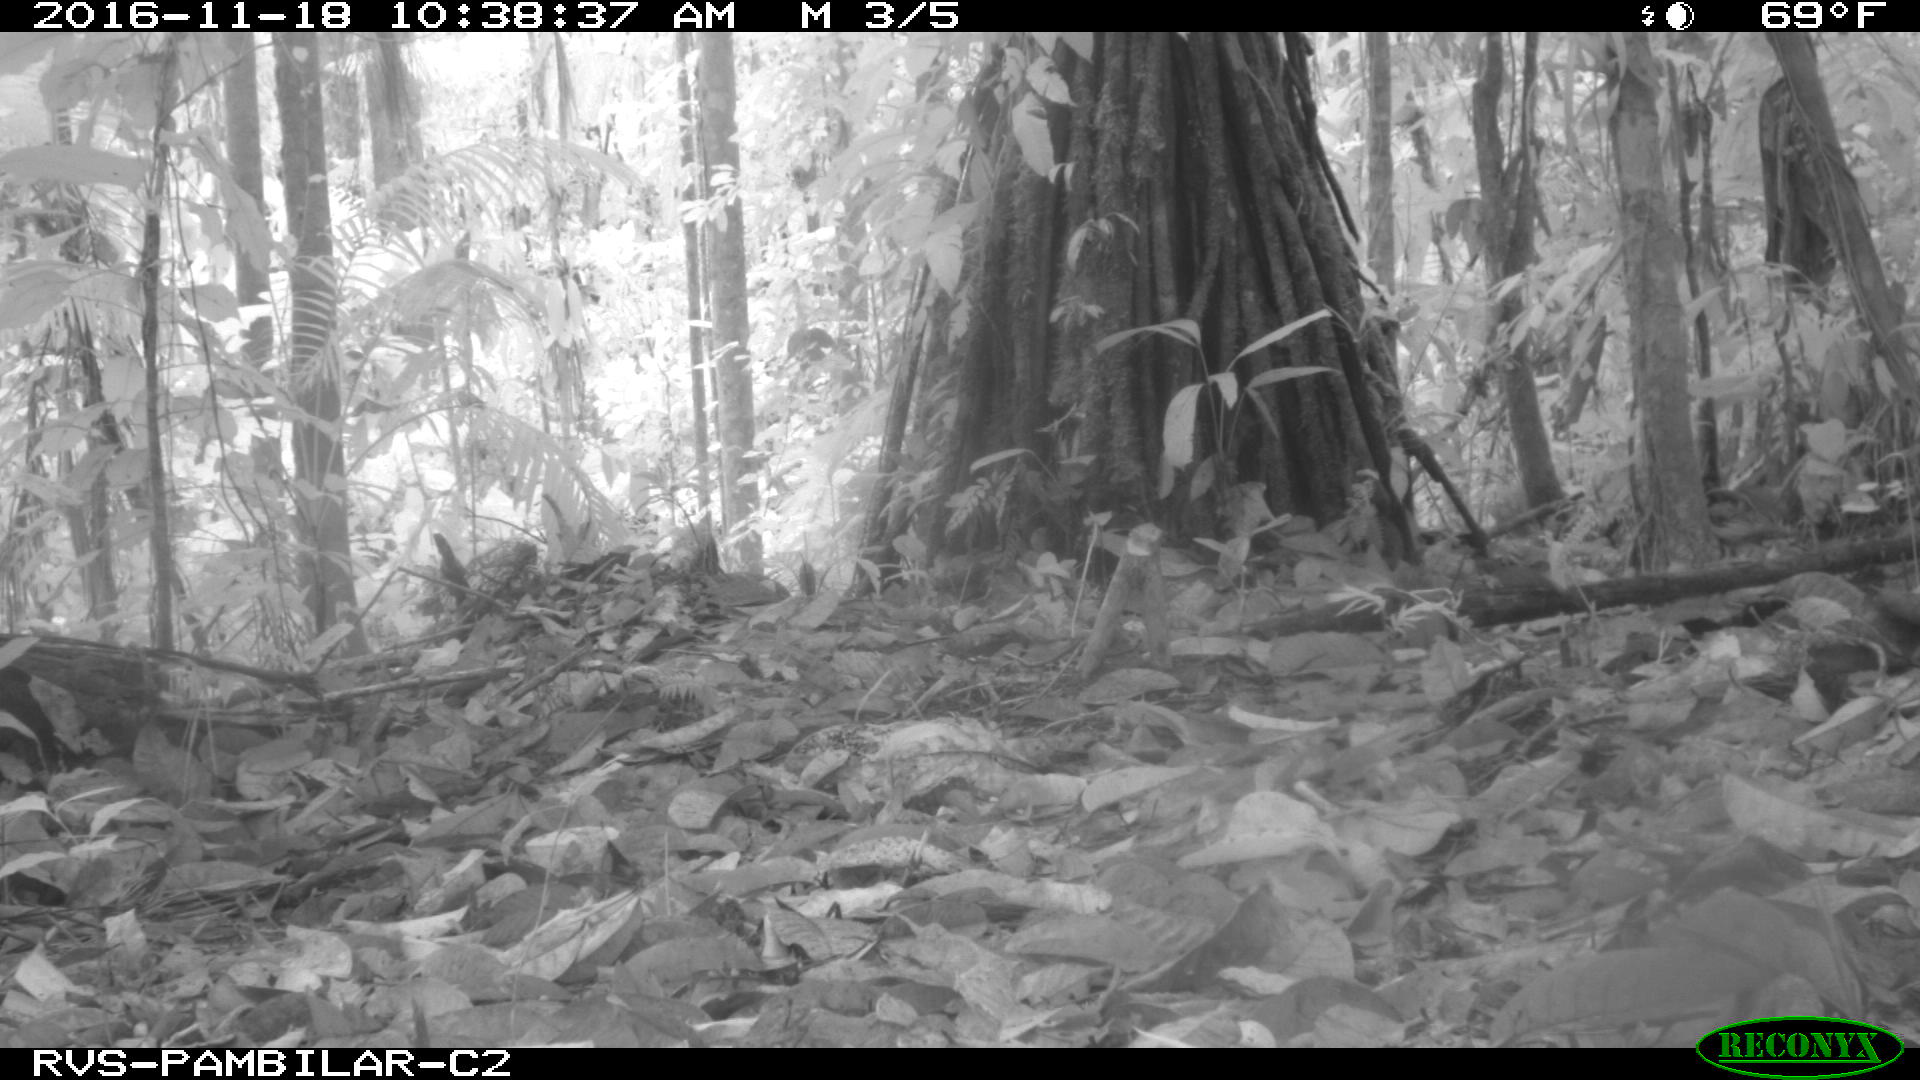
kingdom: Animalia
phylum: Chordata
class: Mammalia
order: Carnivora
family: Mustelidae
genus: Eira
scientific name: Eira barbara
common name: Tayra
